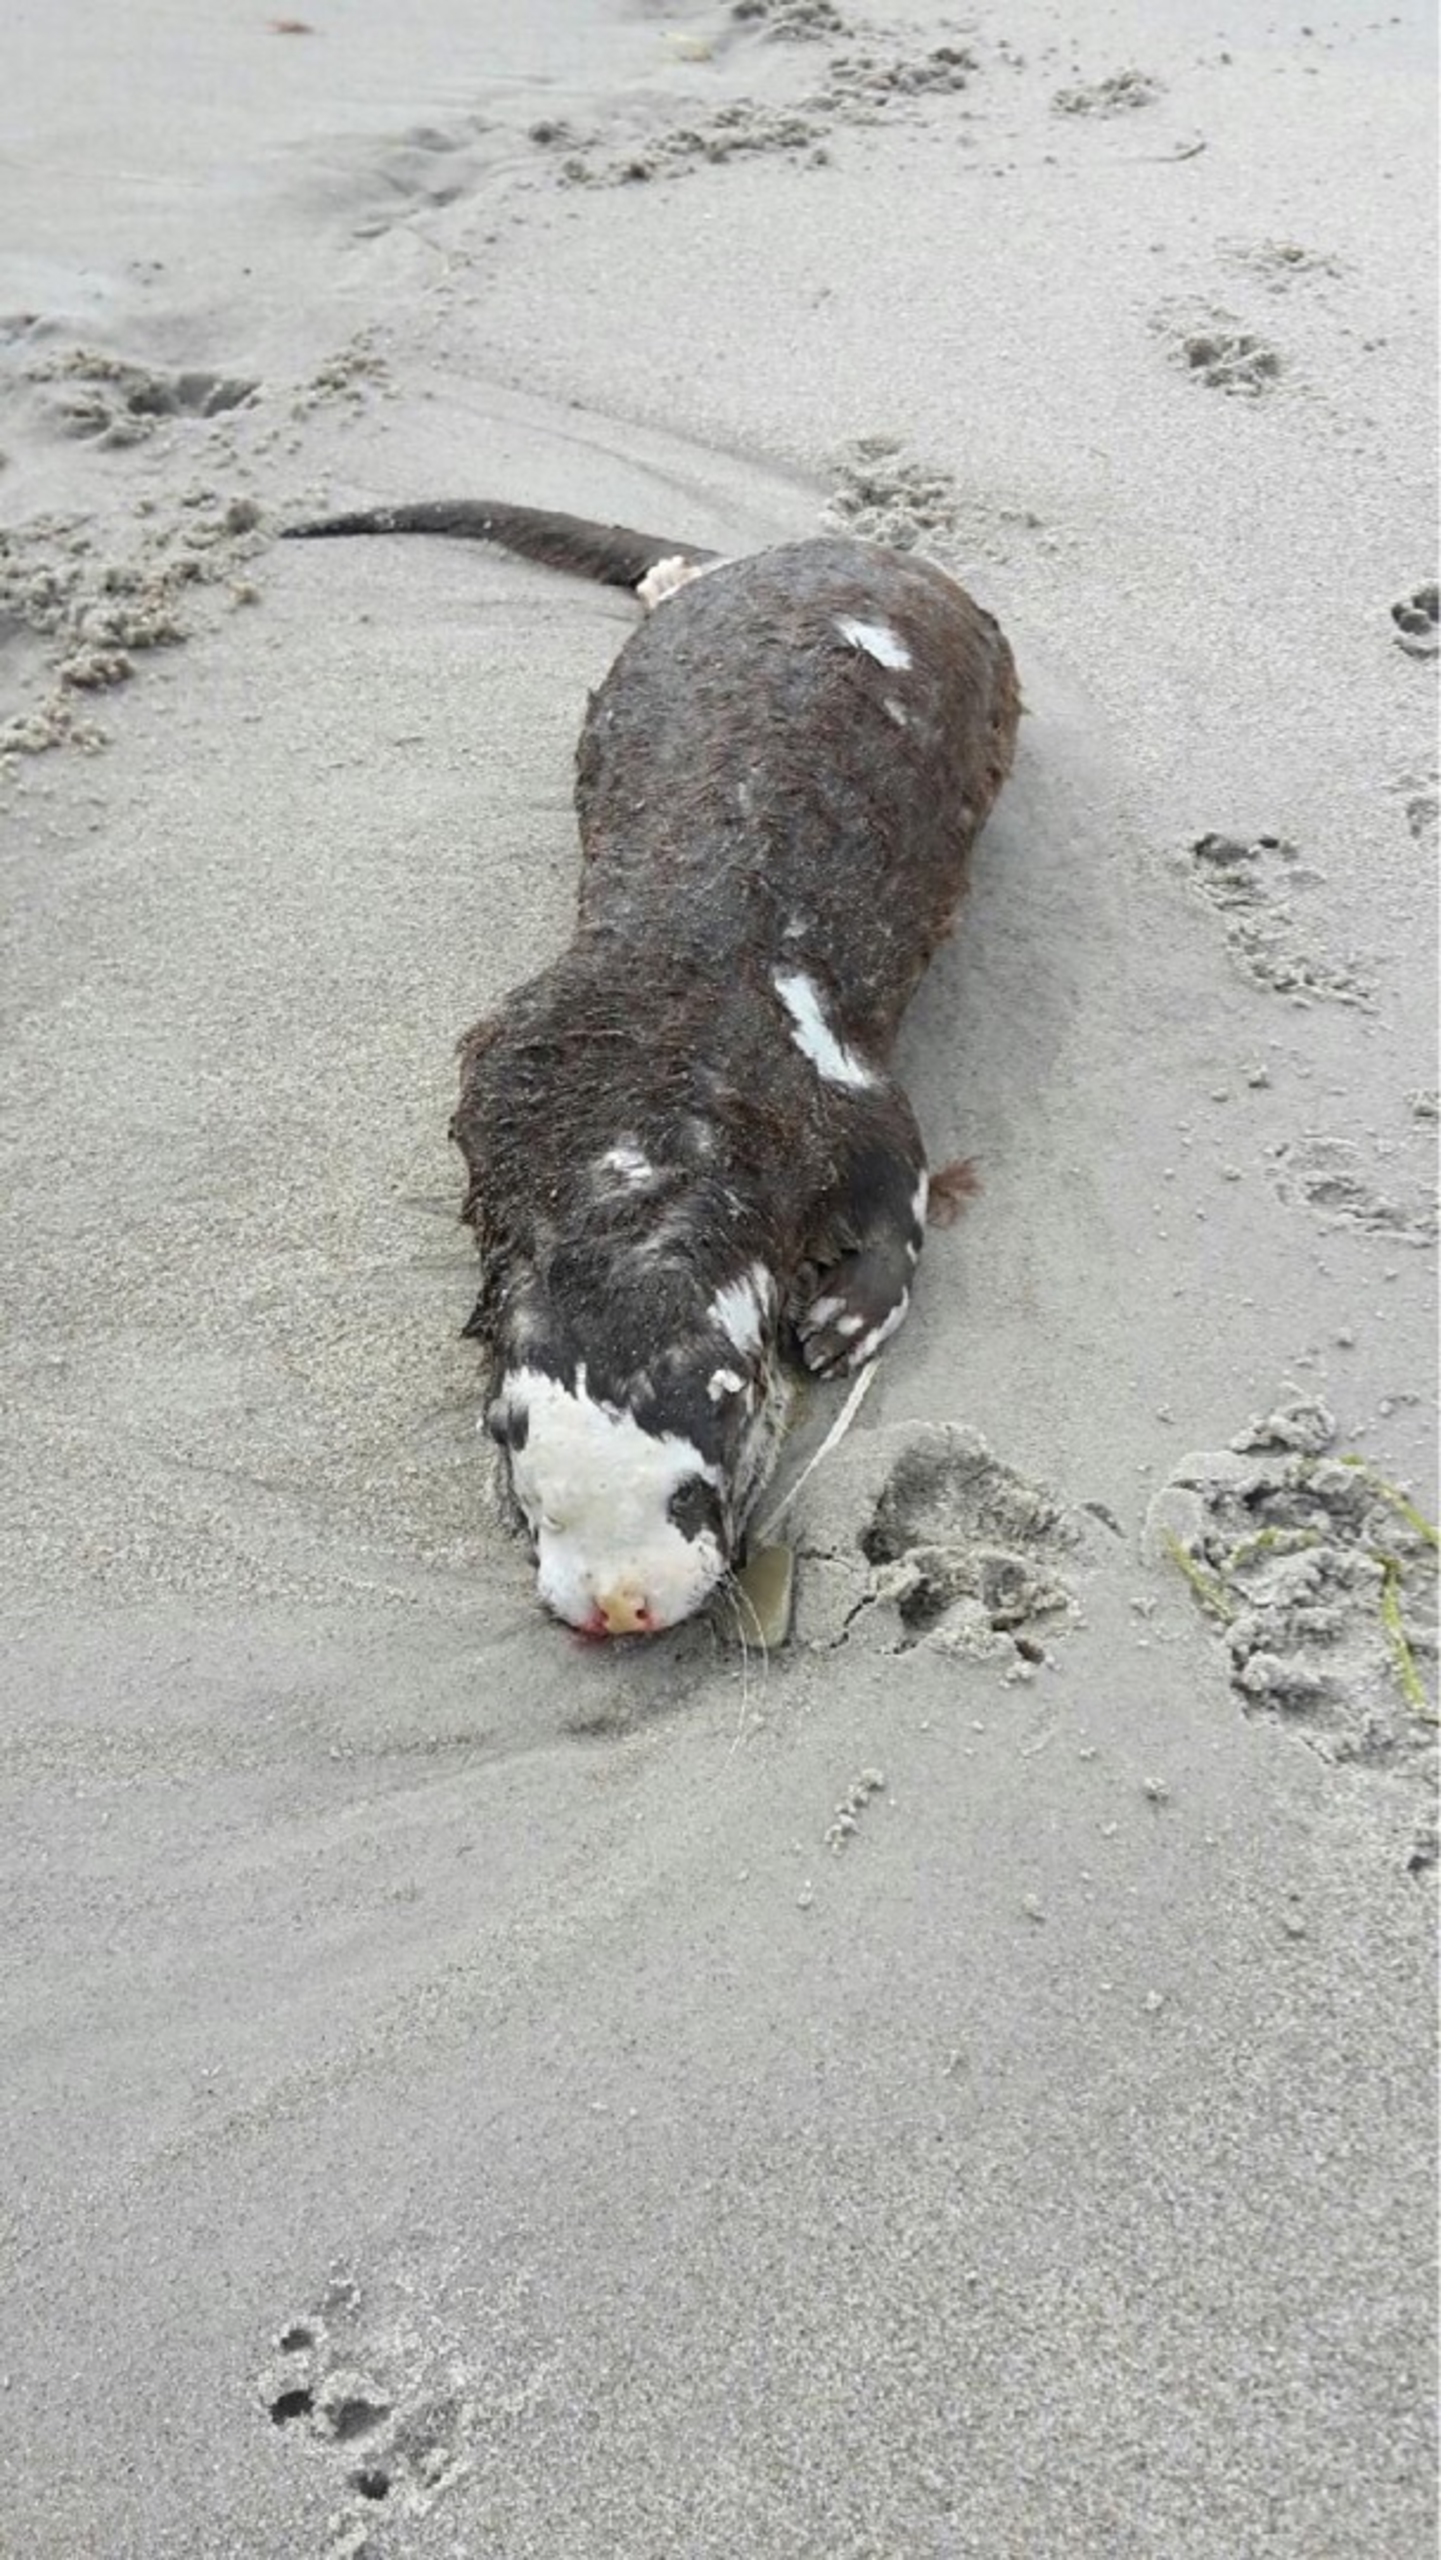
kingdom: Animalia
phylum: Chordata
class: Mammalia
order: Carnivora
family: Mustelidae
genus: Lutra
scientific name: Lutra lutra
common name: Odder
